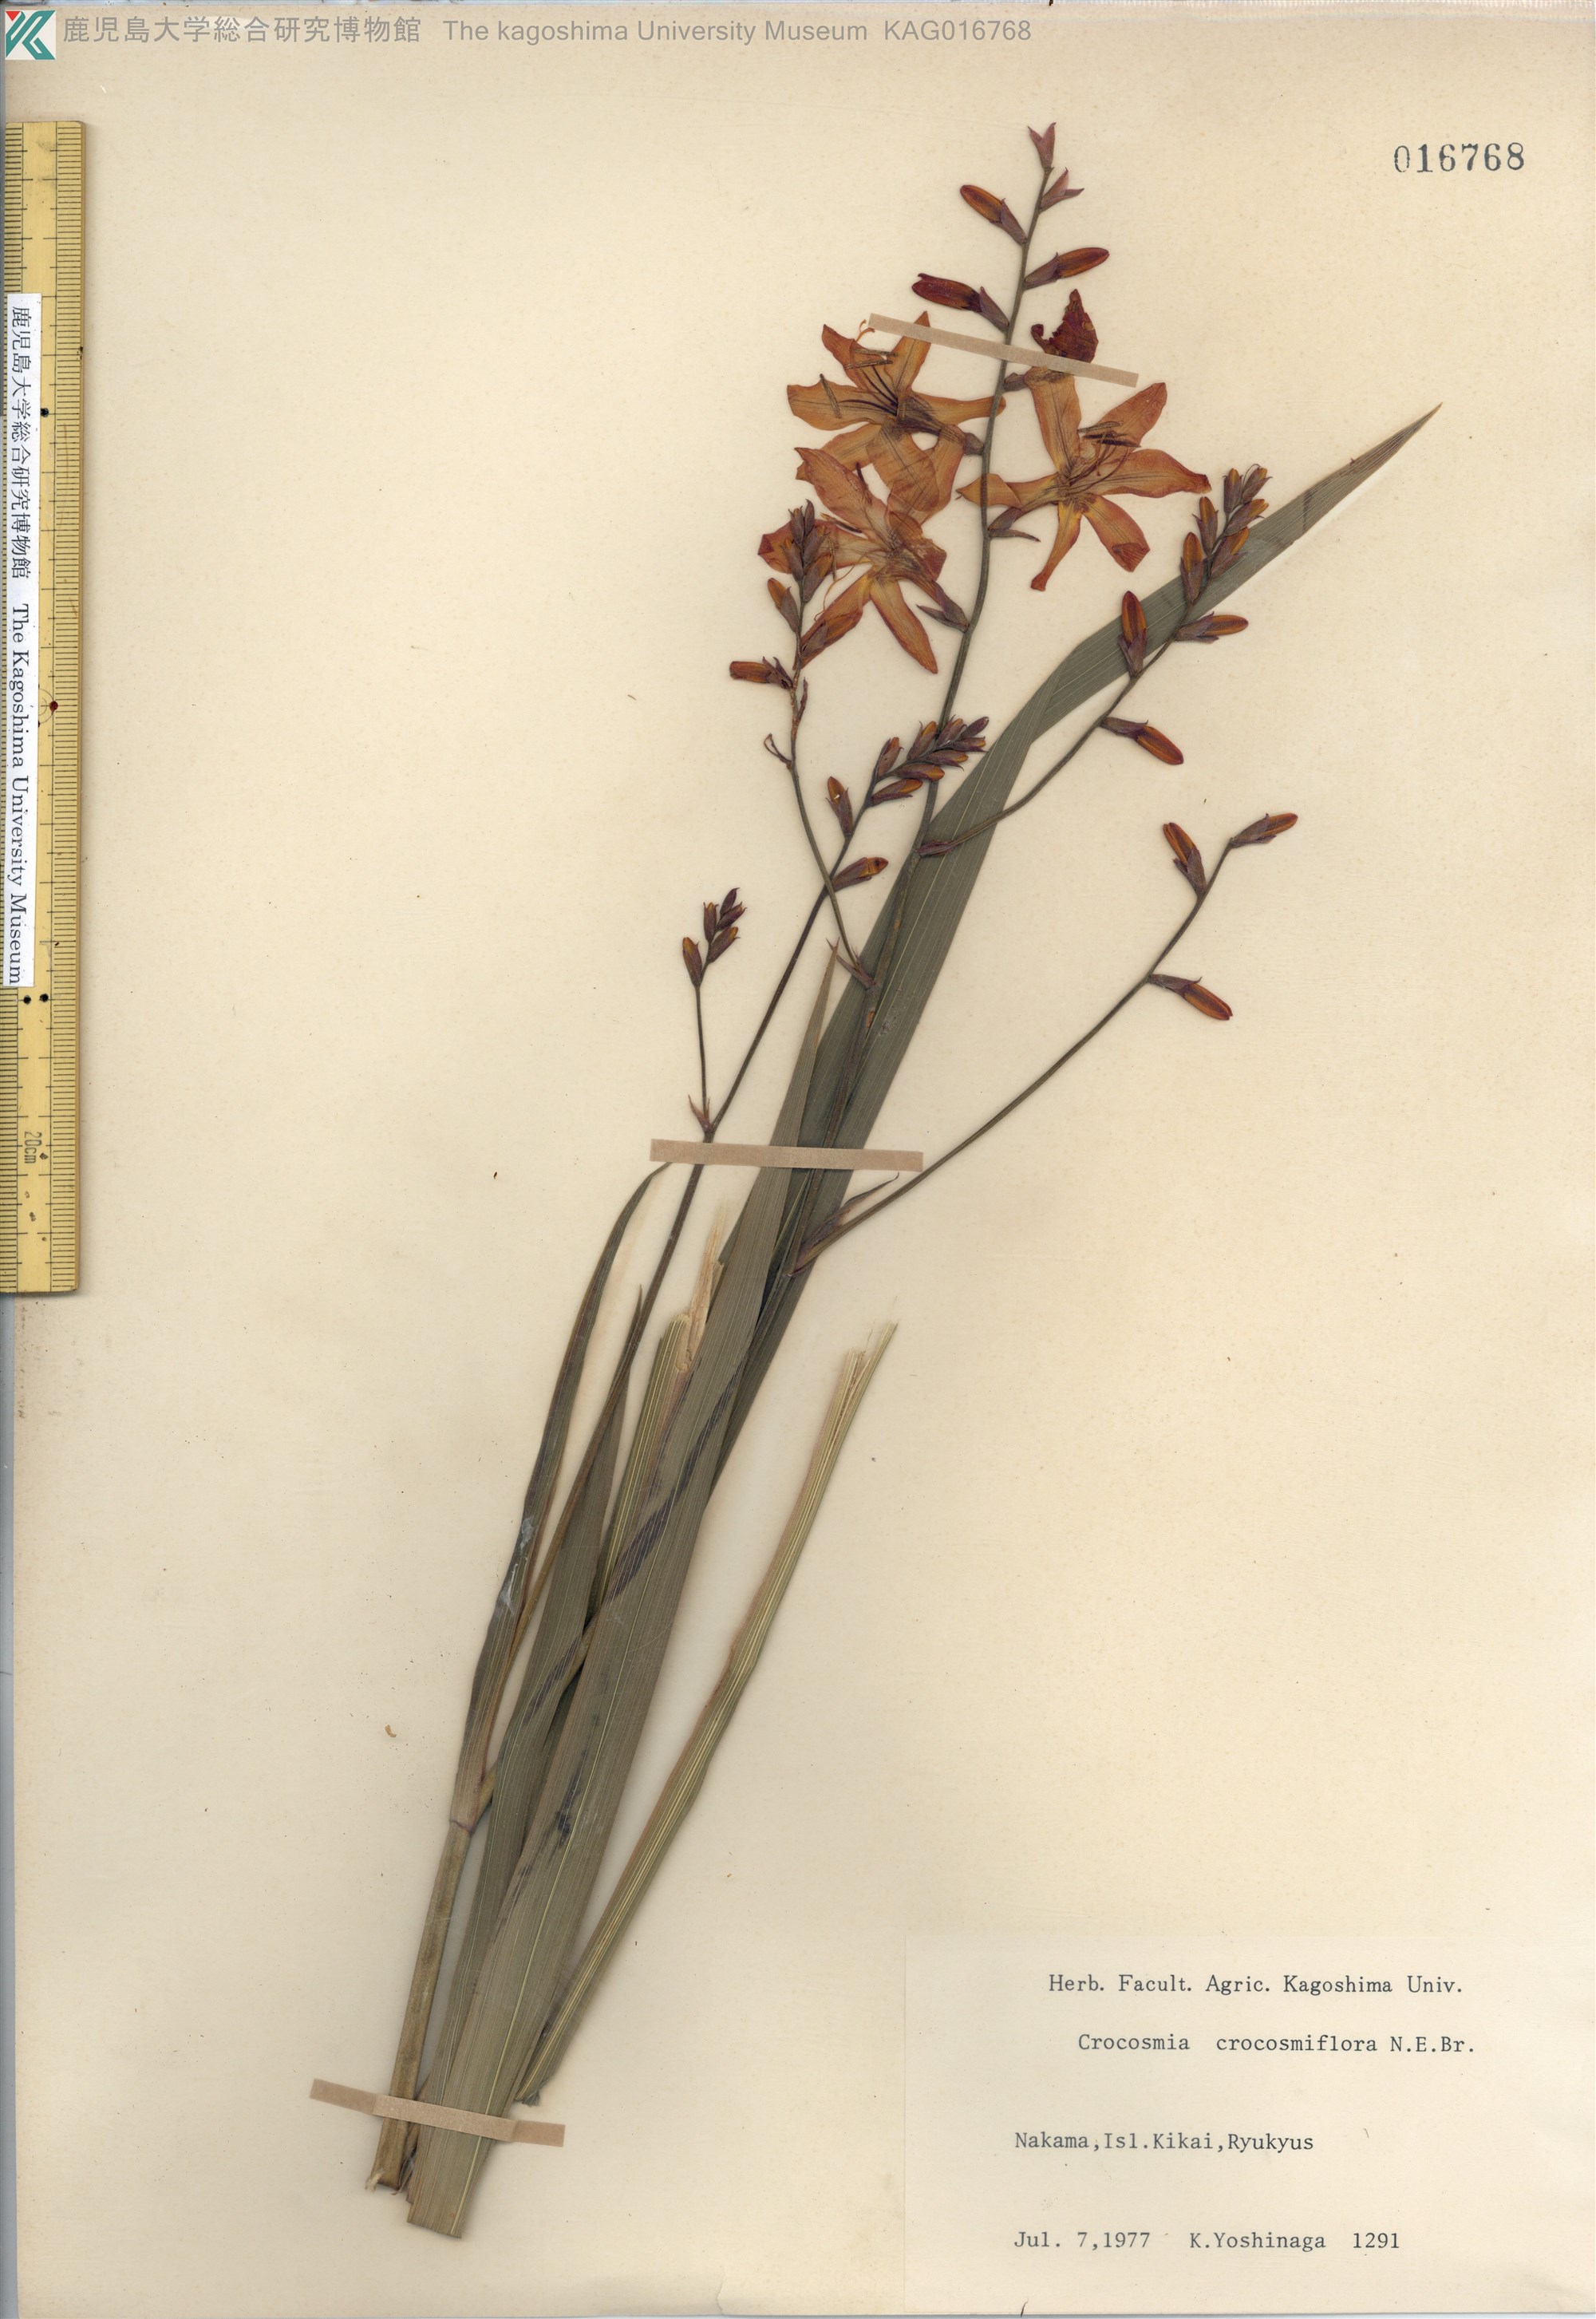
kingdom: Plantae
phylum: Tracheophyta
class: Liliopsida
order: Asparagales
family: Iridaceae
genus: Crocosmia
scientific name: Crocosmia crocosmiiflora
